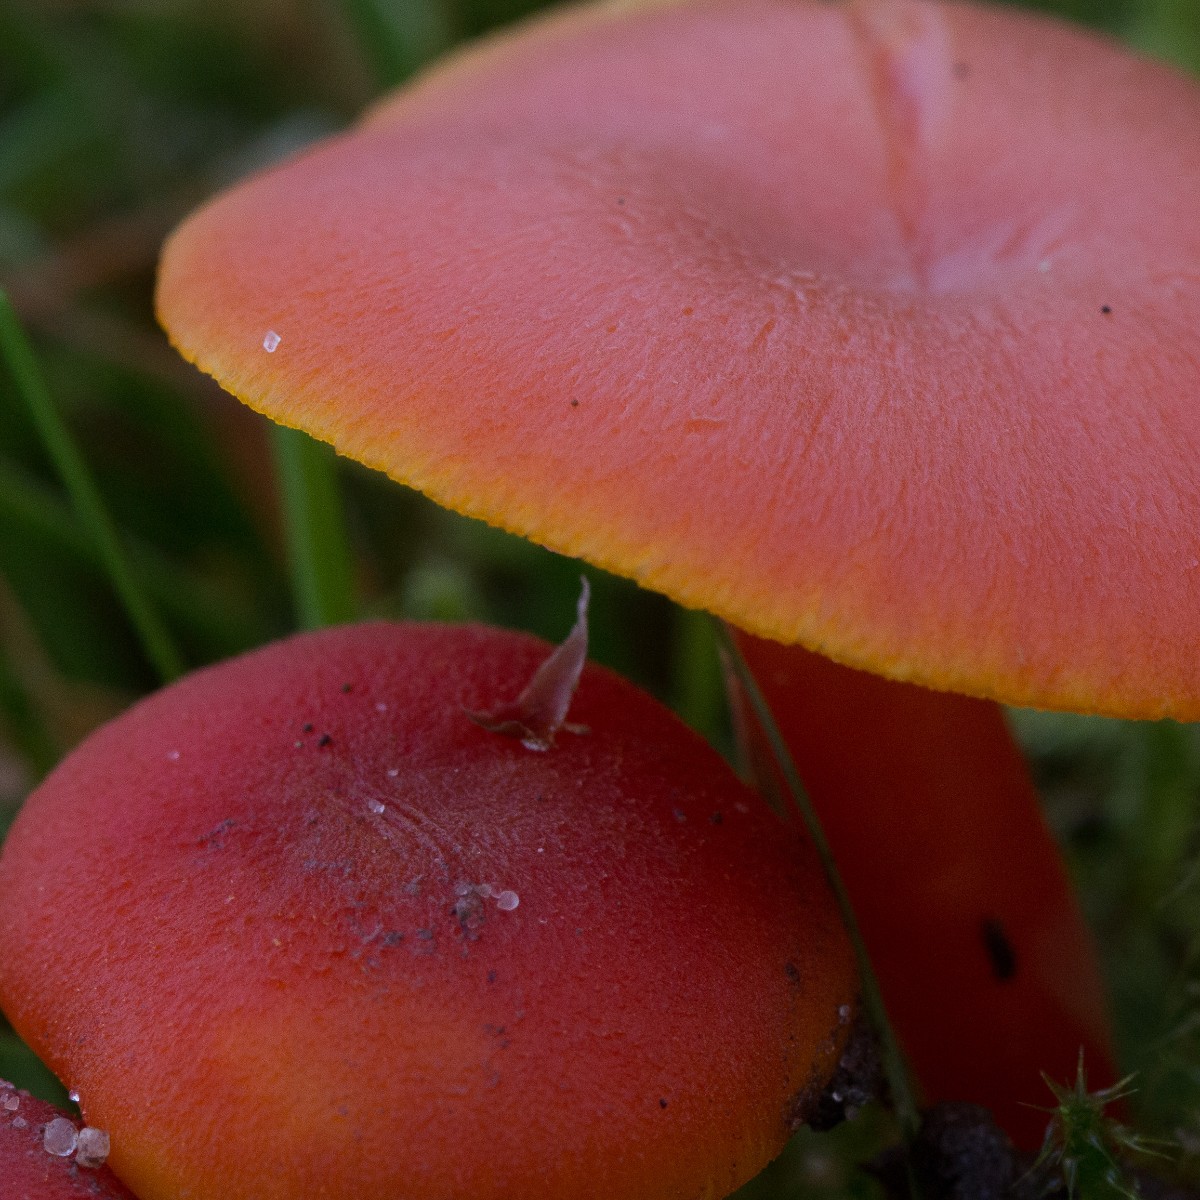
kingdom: Fungi
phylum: Basidiomycota
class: Agaricomycetes
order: Agaricales
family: Hygrophoraceae
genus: Hygrocybe
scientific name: Hygrocybe miniata
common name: mønje-vokshat
